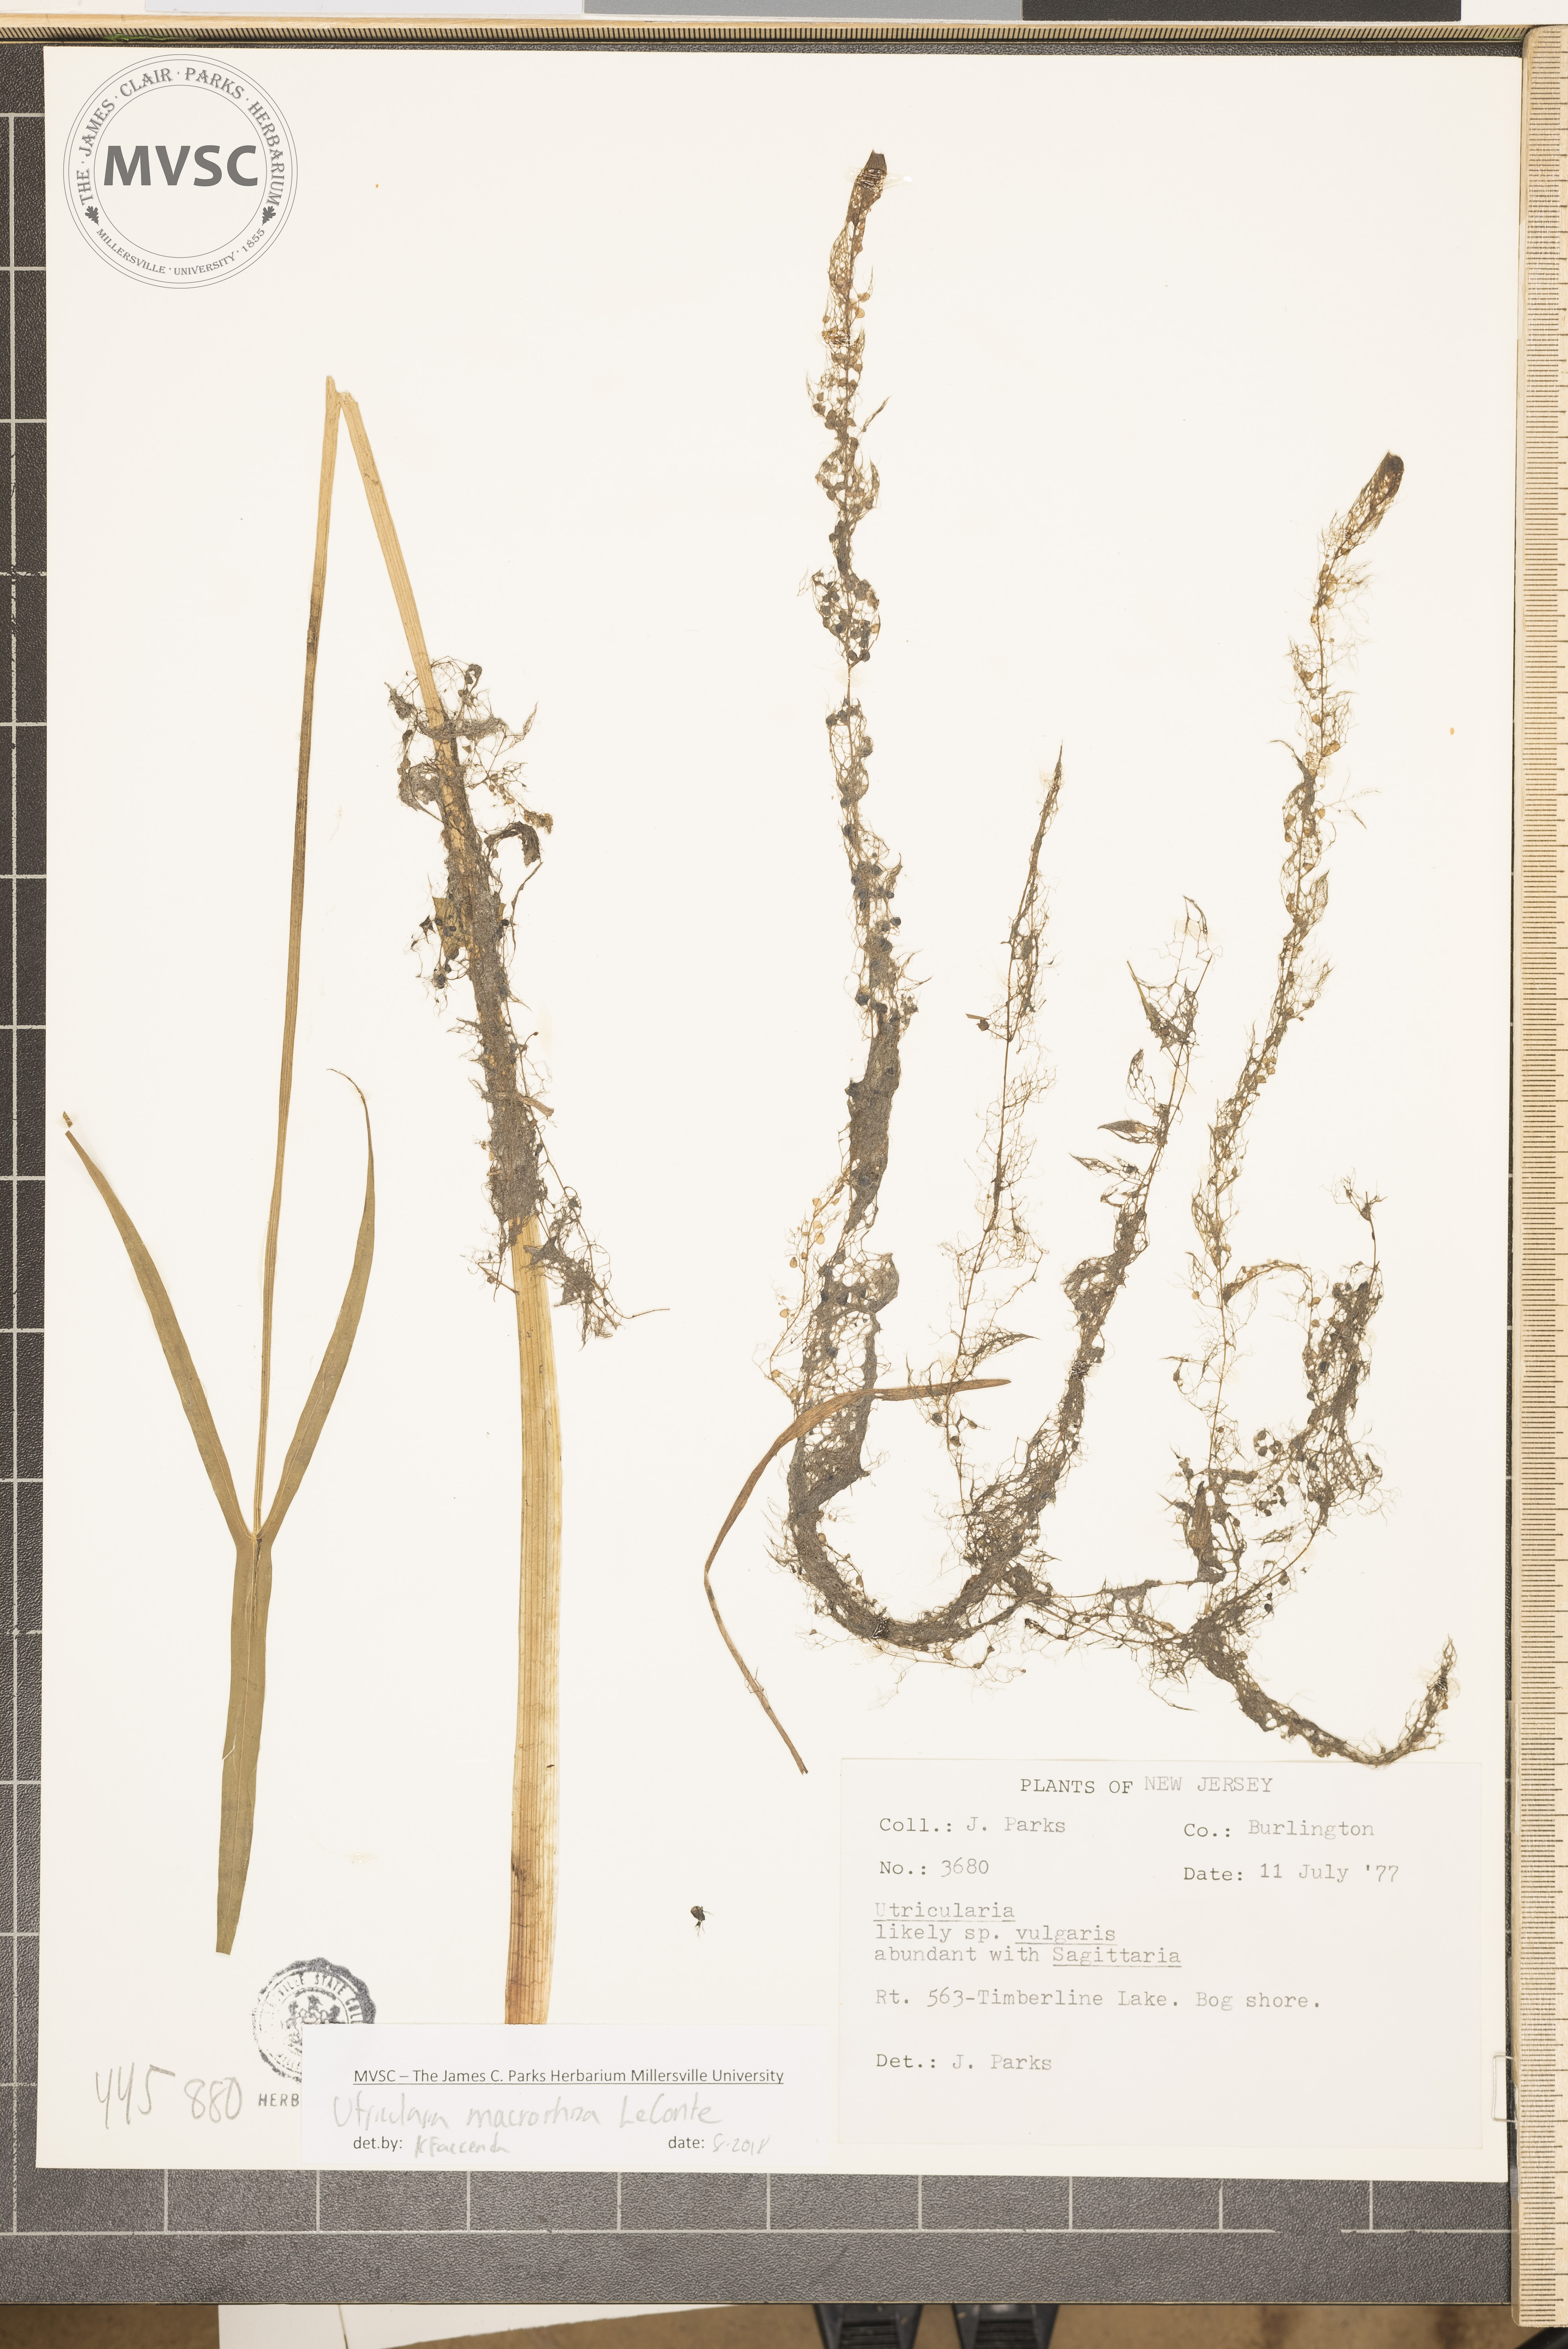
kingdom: Plantae
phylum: Tracheophyta
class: Magnoliopsida
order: Lamiales
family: Lentibulariaceae
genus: Utricularia
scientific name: Utricularia macrorhiza
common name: Common bladderwort
